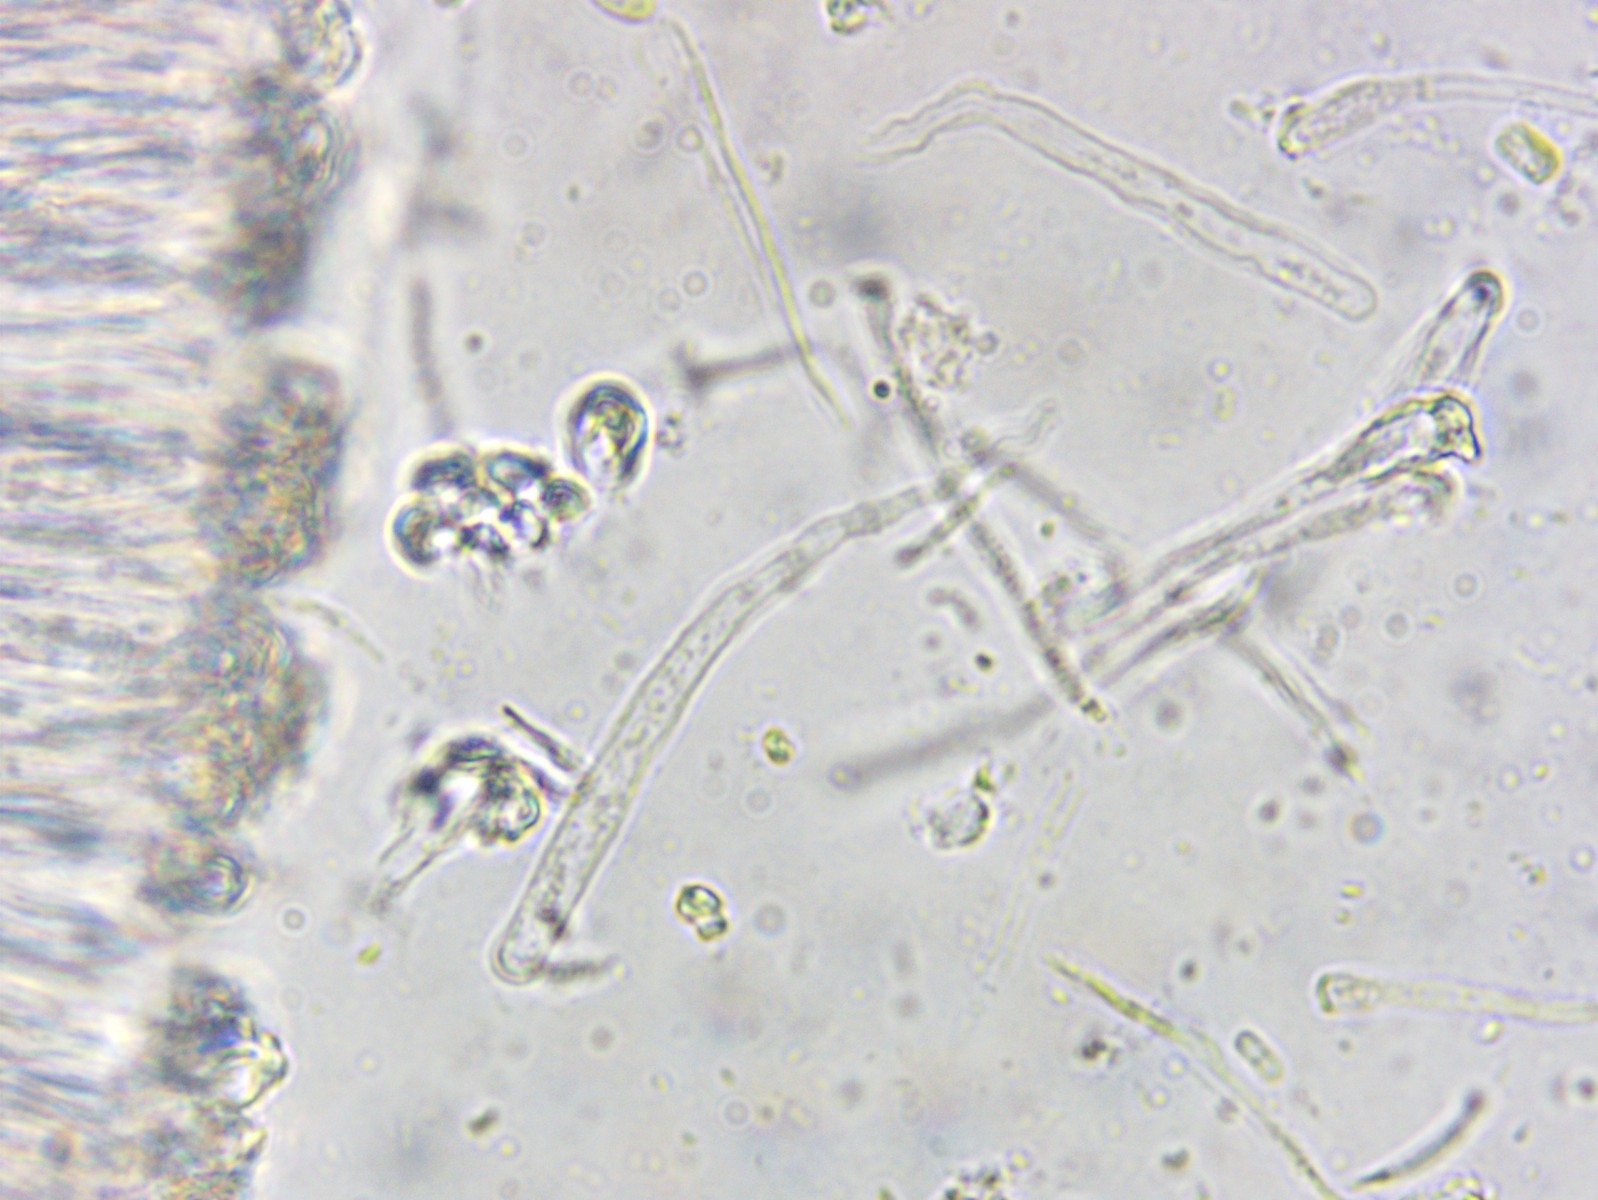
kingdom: Fungi
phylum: Ascomycota
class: Orbiliomycetes
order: Orbiliales
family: Orbiliaceae
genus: Orbilia
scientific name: Orbilia auricolor
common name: gylden voksskive
